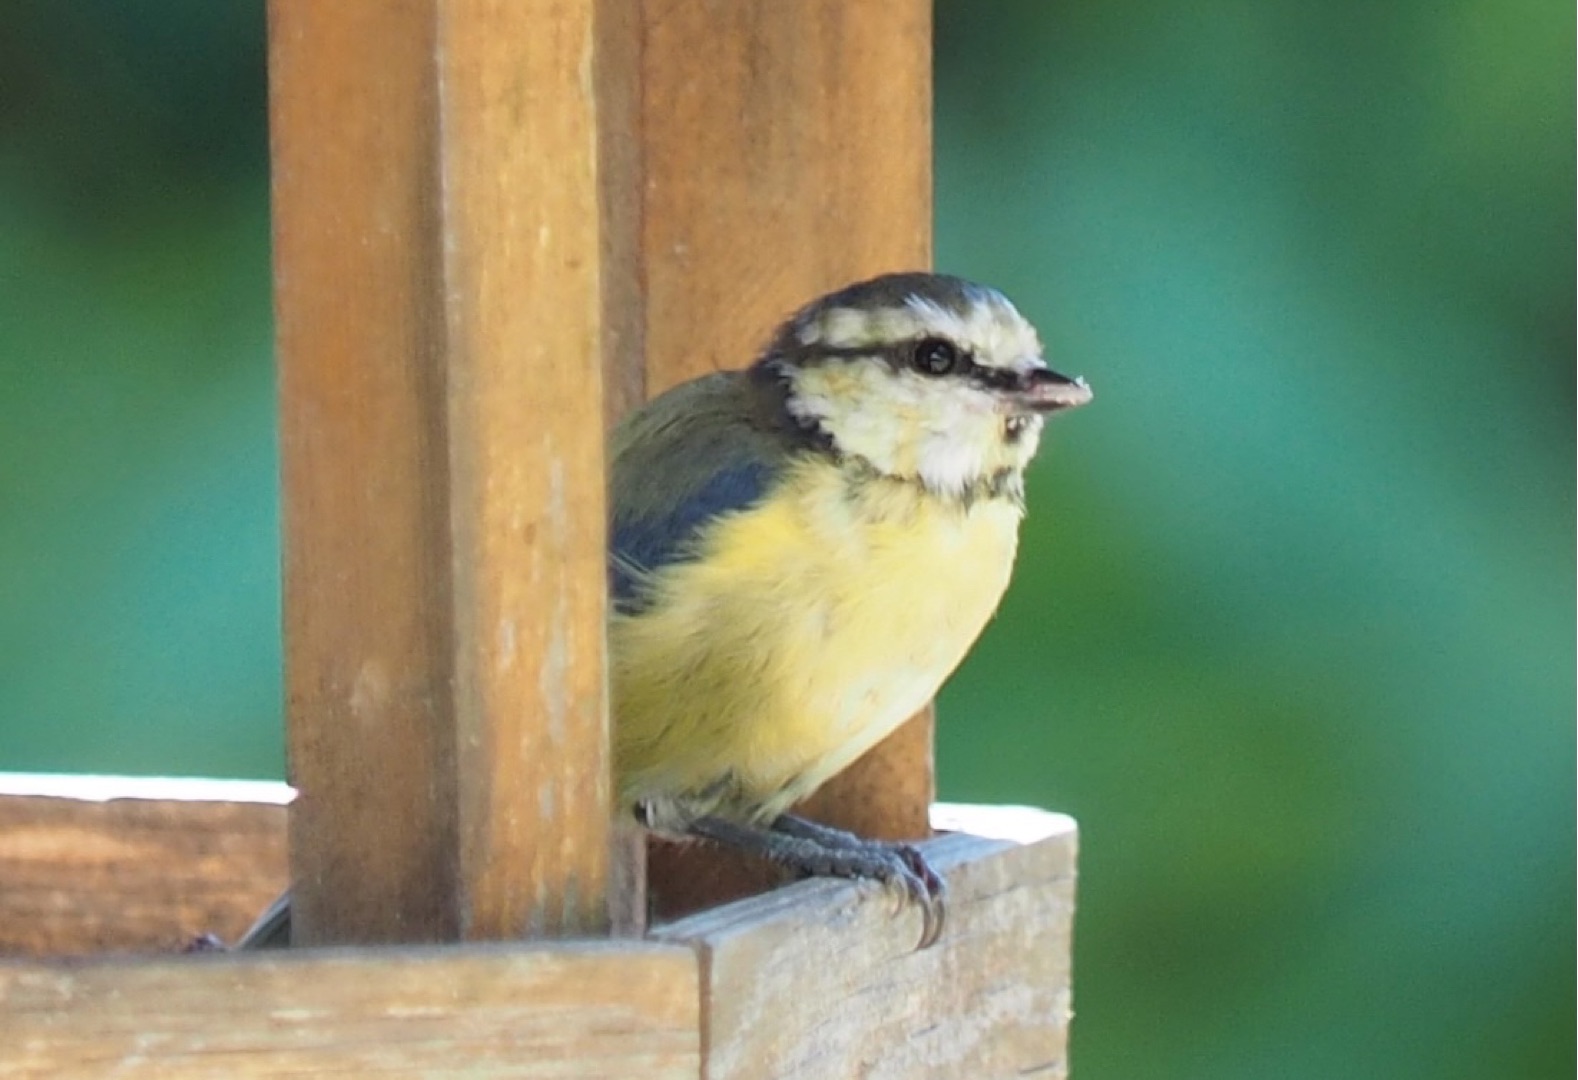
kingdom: Animalia
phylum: Chordata
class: Aves
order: Passeriformes
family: Paridae
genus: Cyanistes
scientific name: Cyanistes caeruleus
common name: Blåmejse
